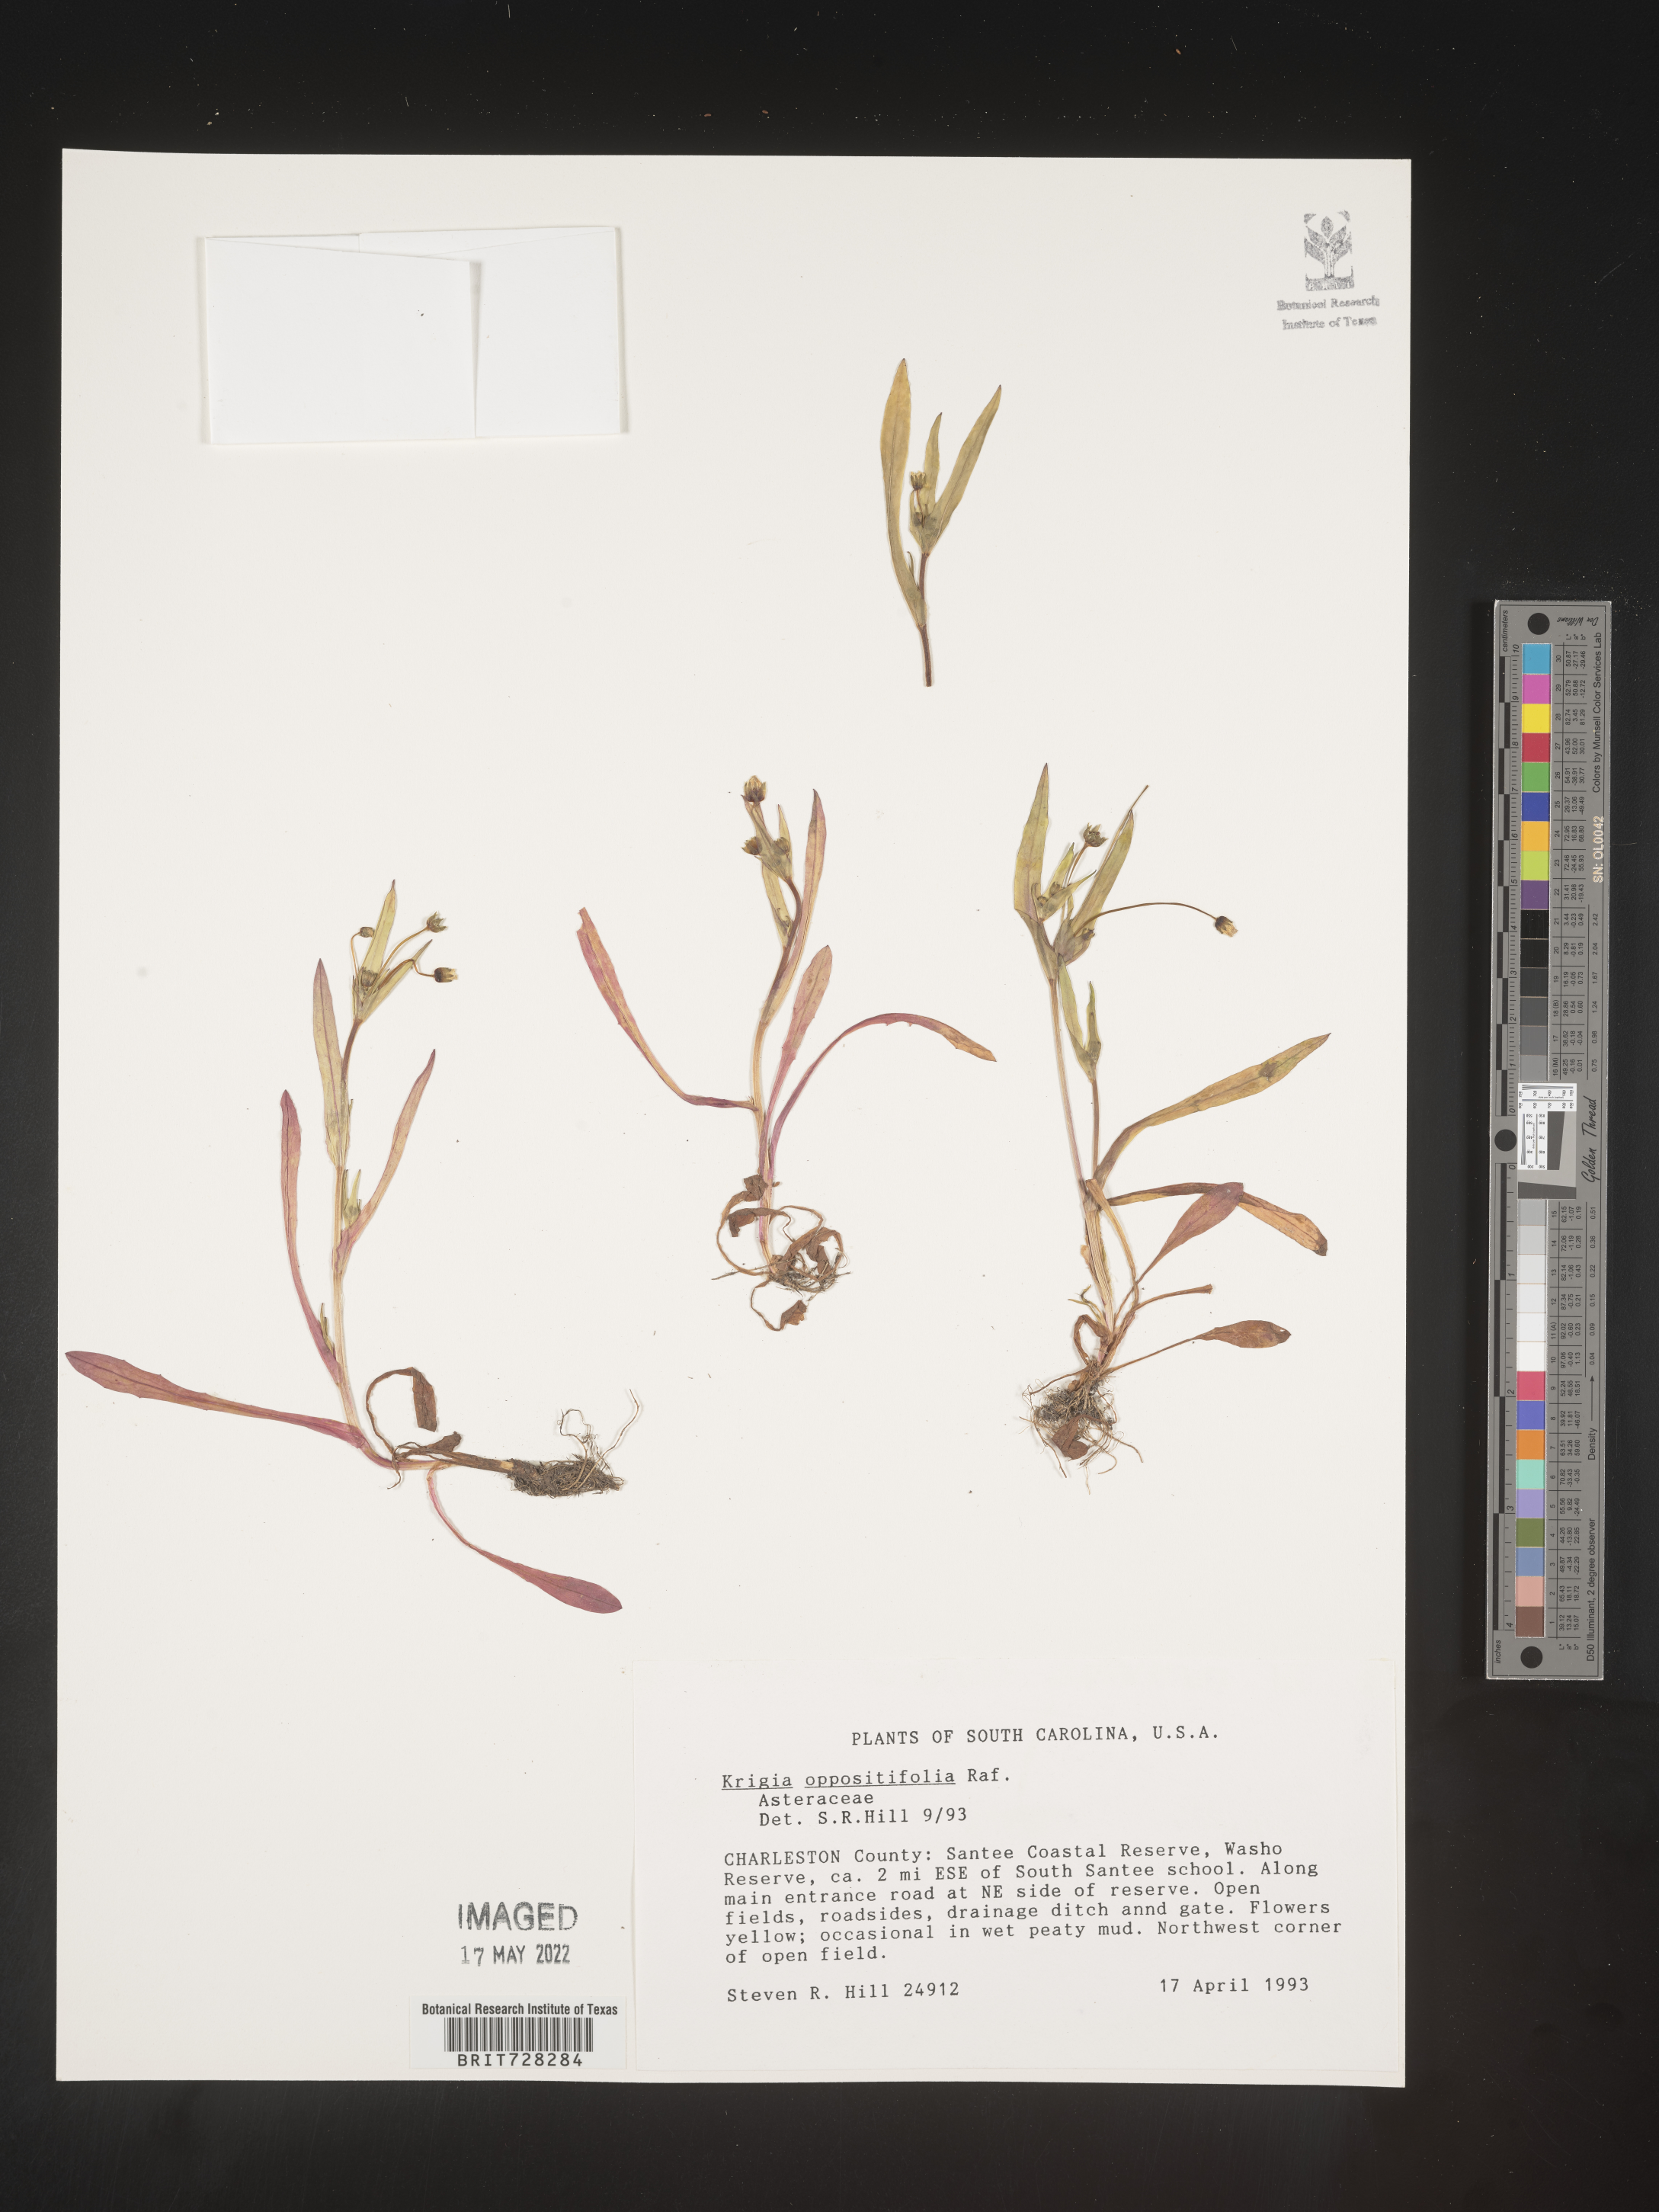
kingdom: Plantae
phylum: Tracheophyta
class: Magnoliopsida
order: Asterales
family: Asteraceae
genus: Krigia
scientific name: Krigia caespitosa
